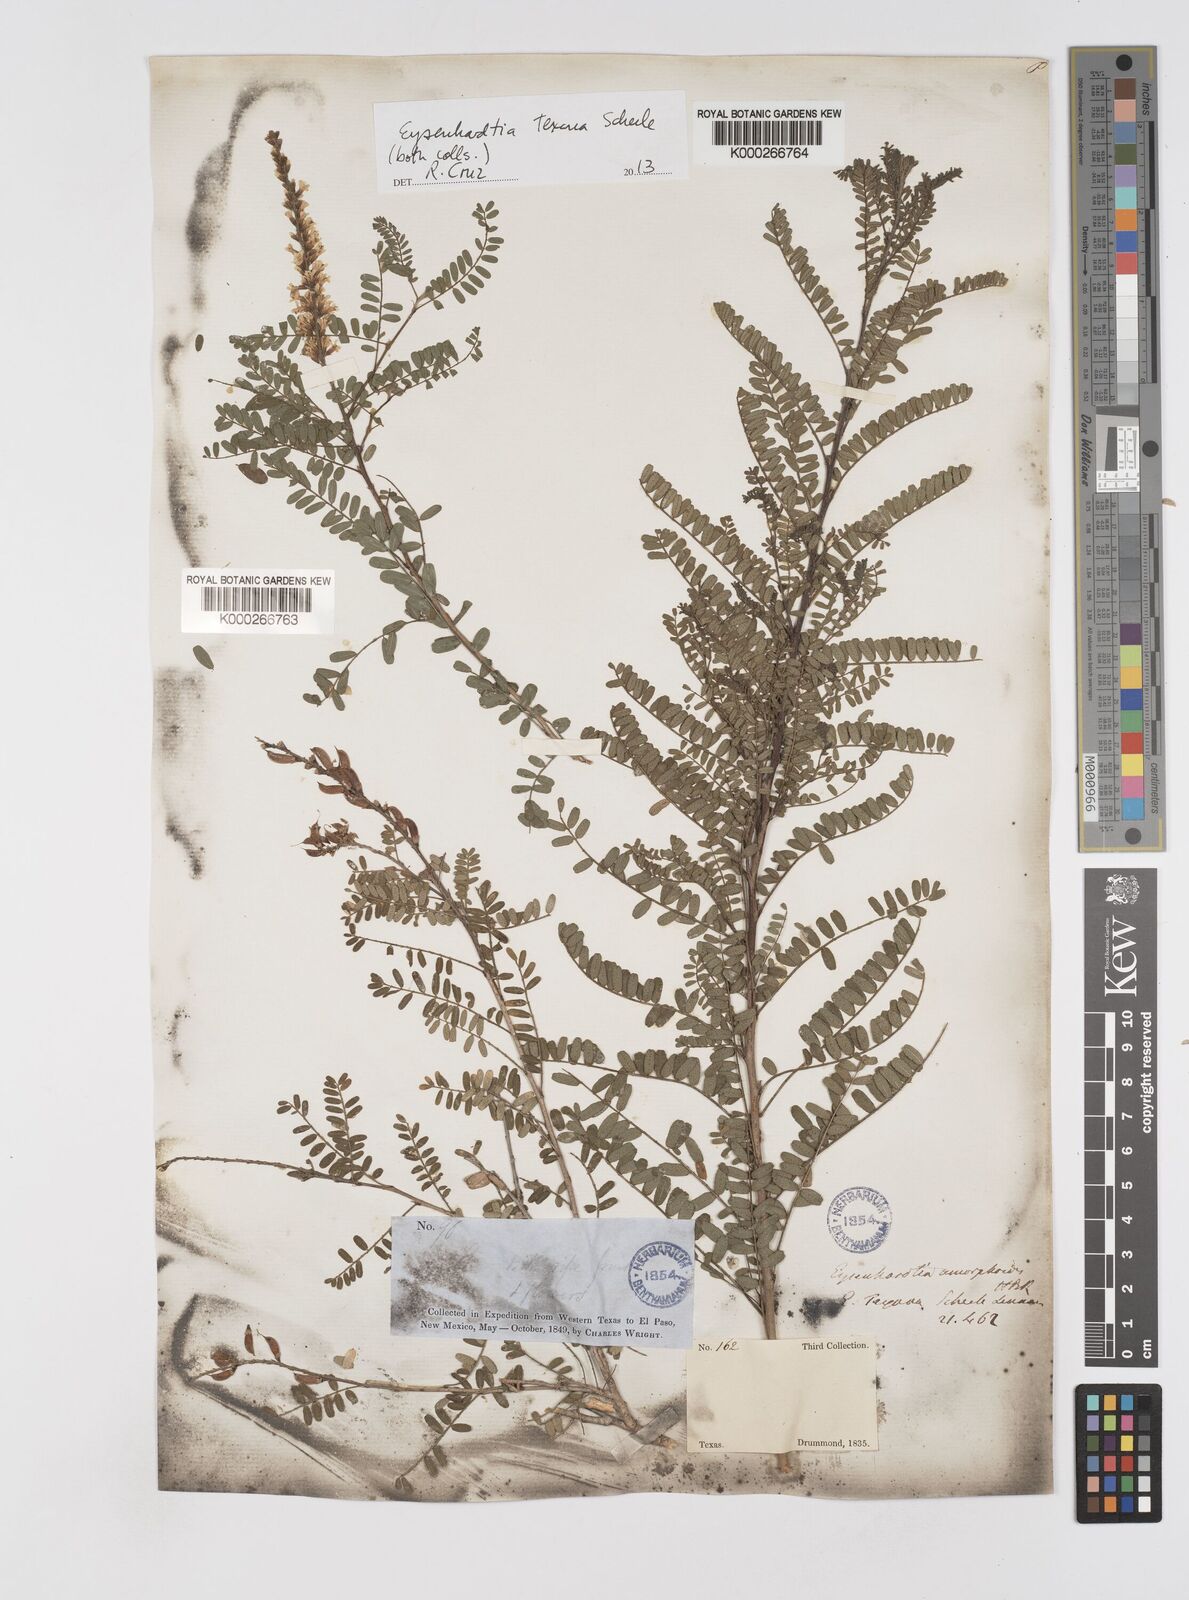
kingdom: Plantae
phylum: Tracheophyta
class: Magnoliopsida
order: Fabales
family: Fabaceae
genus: Eysenhardtia
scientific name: Eysenhardtia texana
